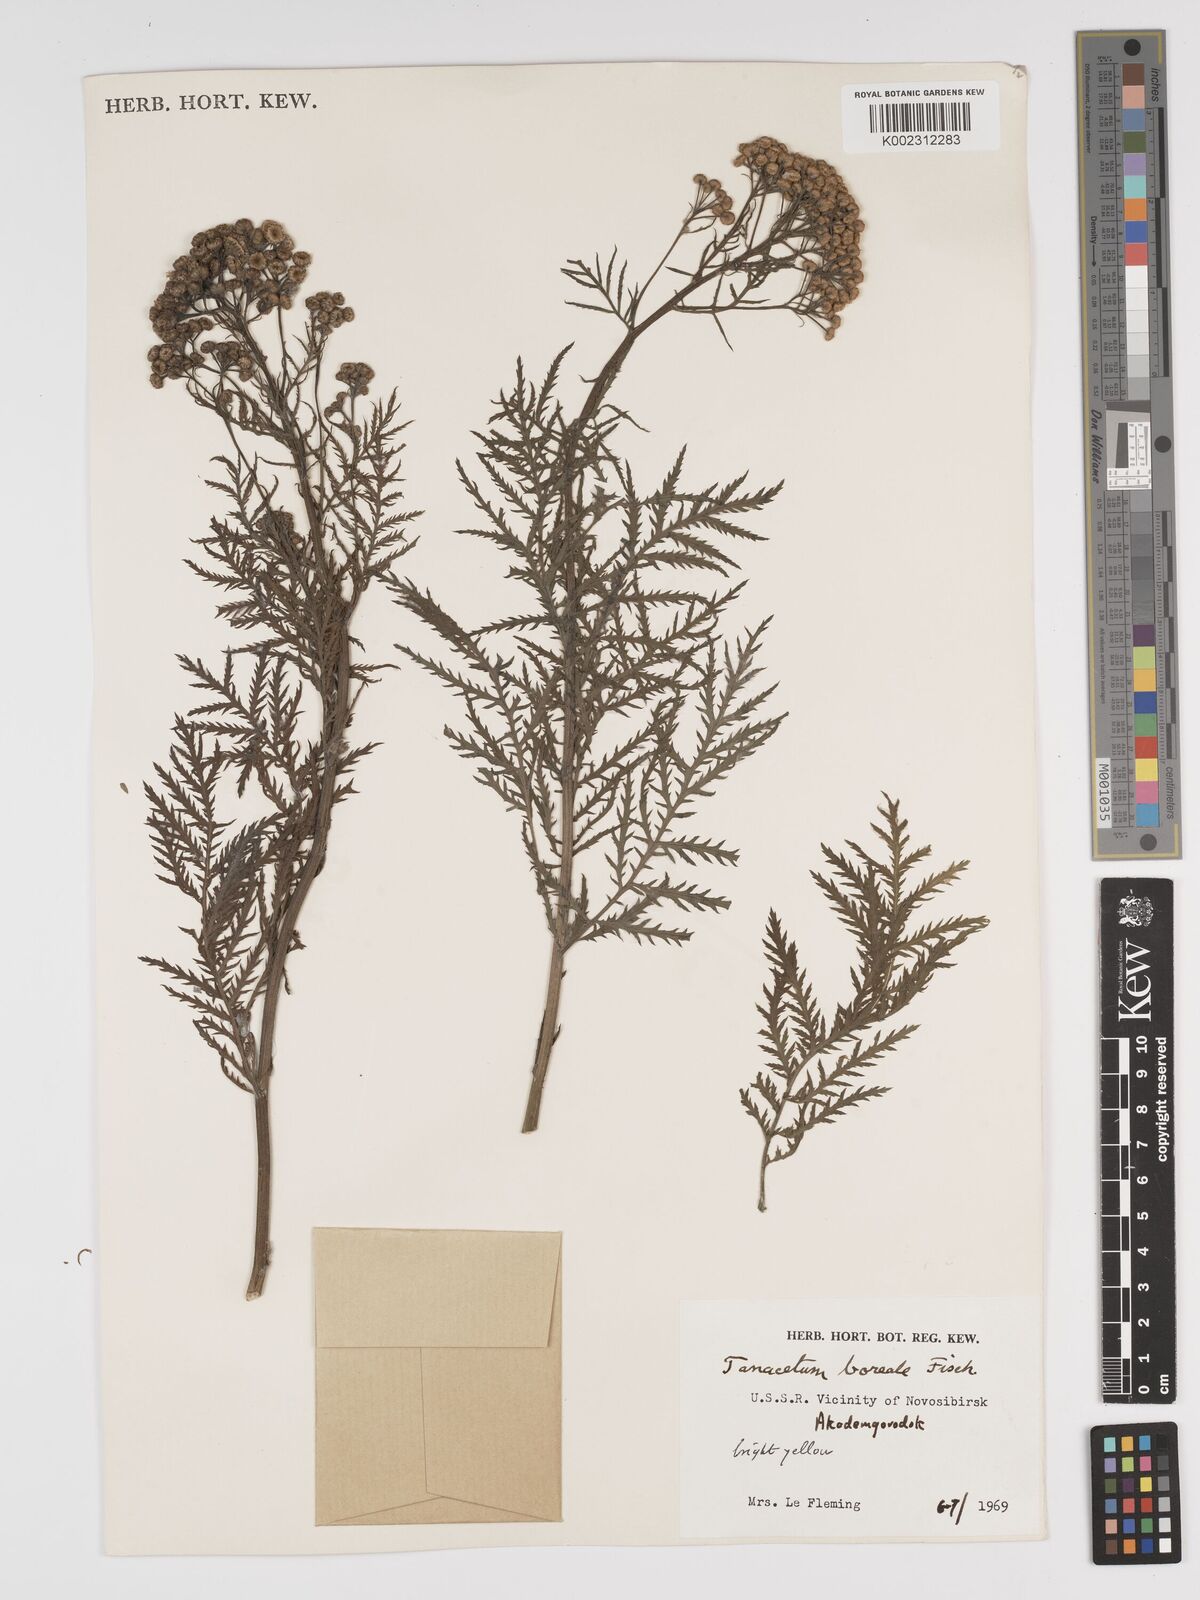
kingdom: Plantae
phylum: Tracheophyta
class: Magnoliopsida
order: Asterales
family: Asteraceae
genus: Tanacetum
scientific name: Tanacetum vulgare
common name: Common tansy
